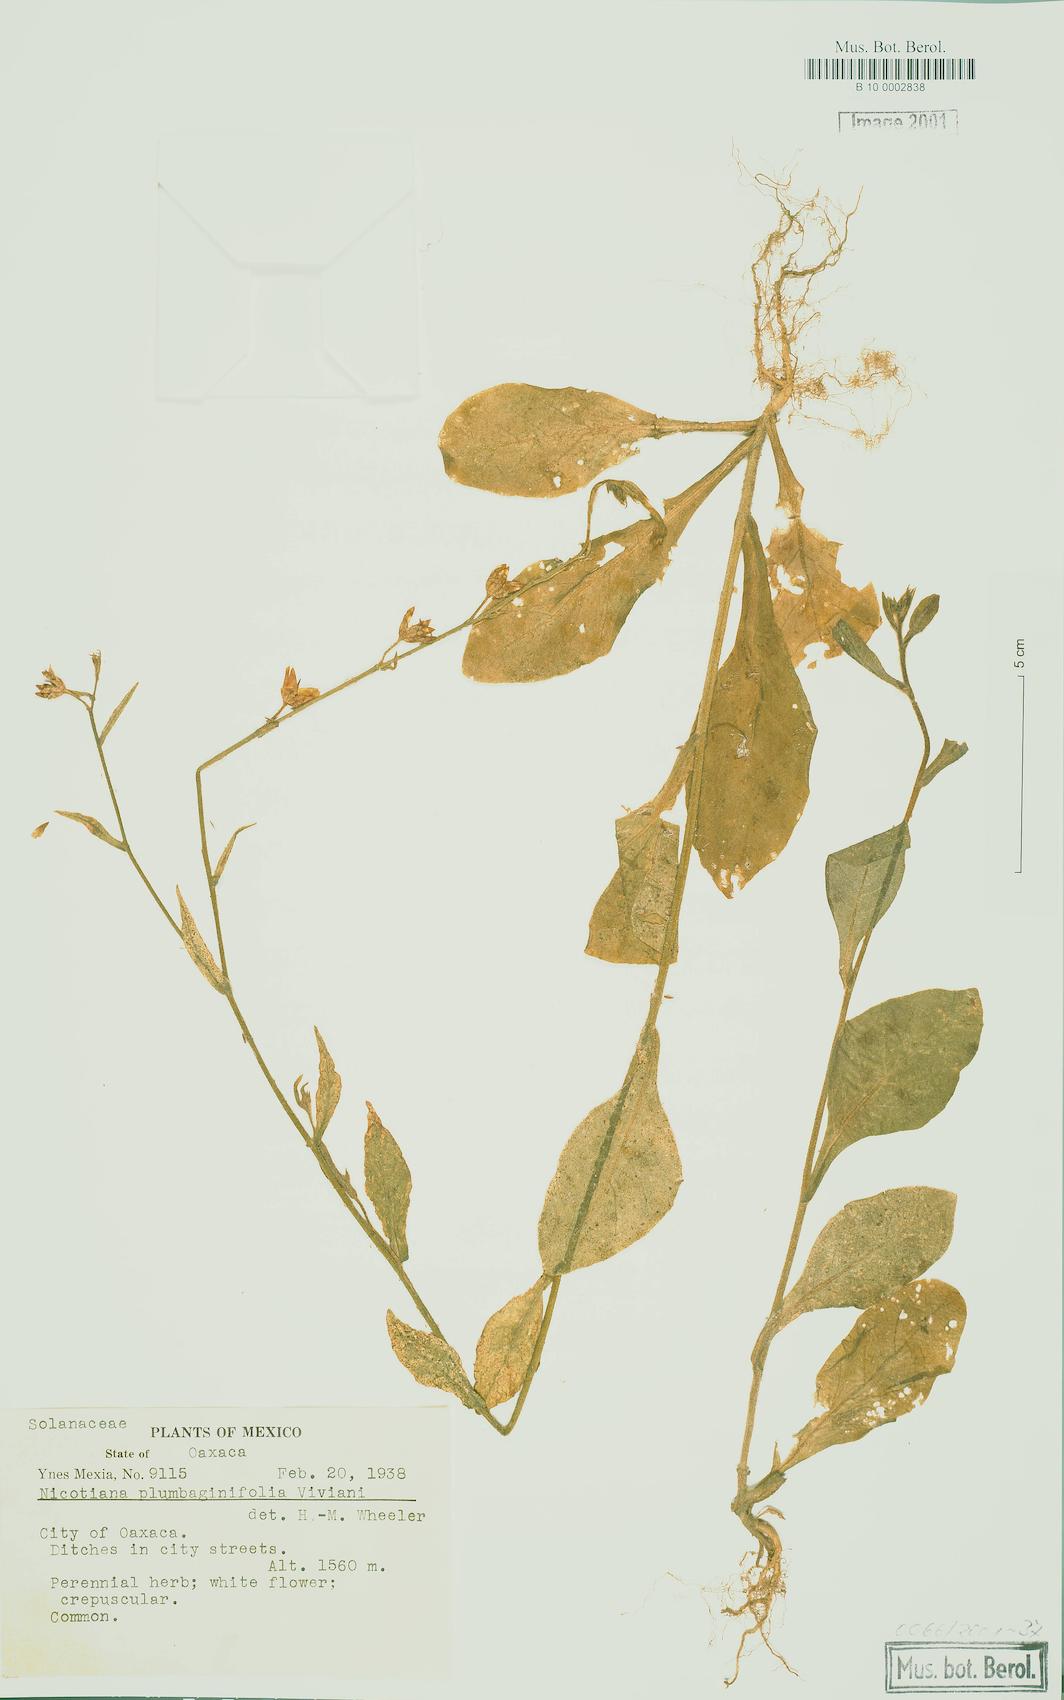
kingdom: Plantae
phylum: Tracheophyta
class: Magnoliopsida
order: Solanales
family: Solanaceae
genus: Nicotiana
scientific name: Nicotiana plumbaginifolia
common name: Tex-mex tobacco
